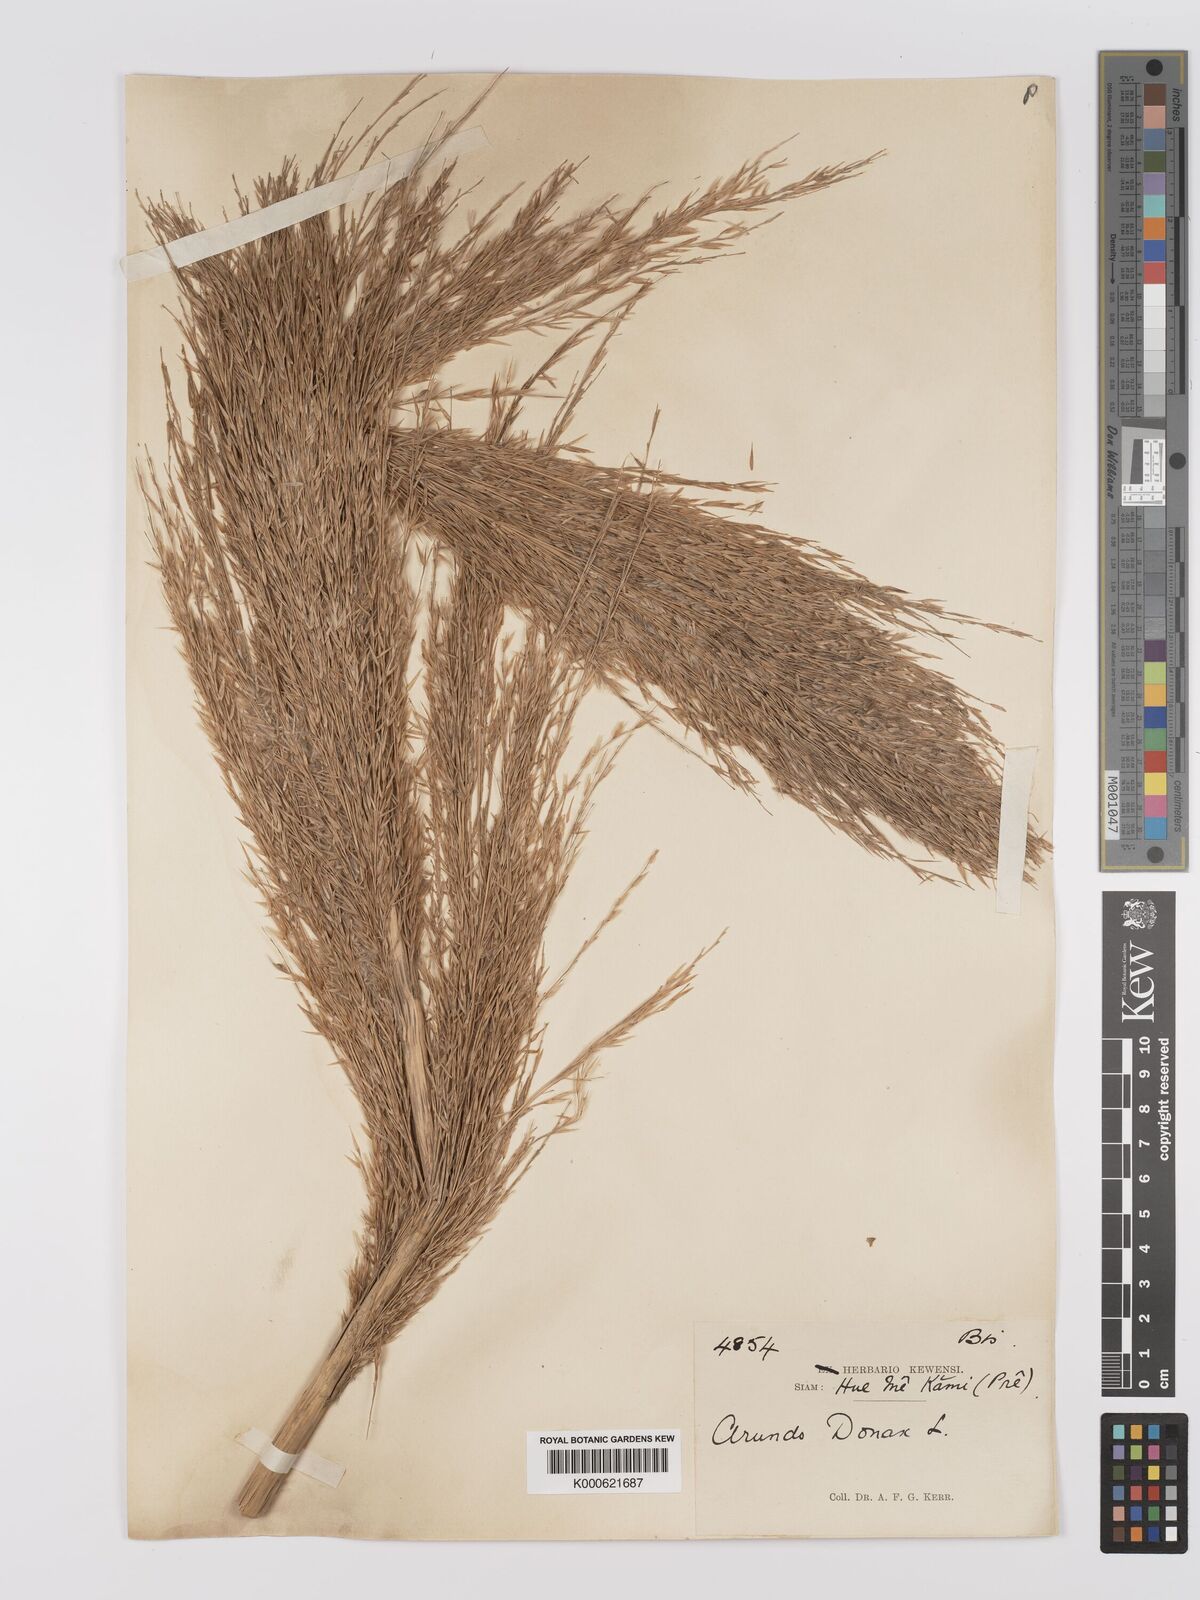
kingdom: Plantae
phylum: Tracheophyta
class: Liliopsida
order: Poales
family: Poaceae
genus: Arundo
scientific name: Arundo donax
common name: Giant reed
